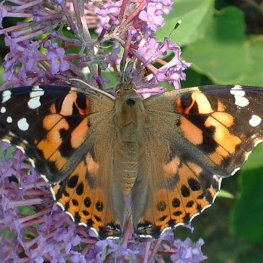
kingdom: Animalia
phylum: Arthropoda
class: Insecta
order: Lepidoptera
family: Nymphalidae
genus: Vanessa
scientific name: Vanessa cardui
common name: Painted Lady
